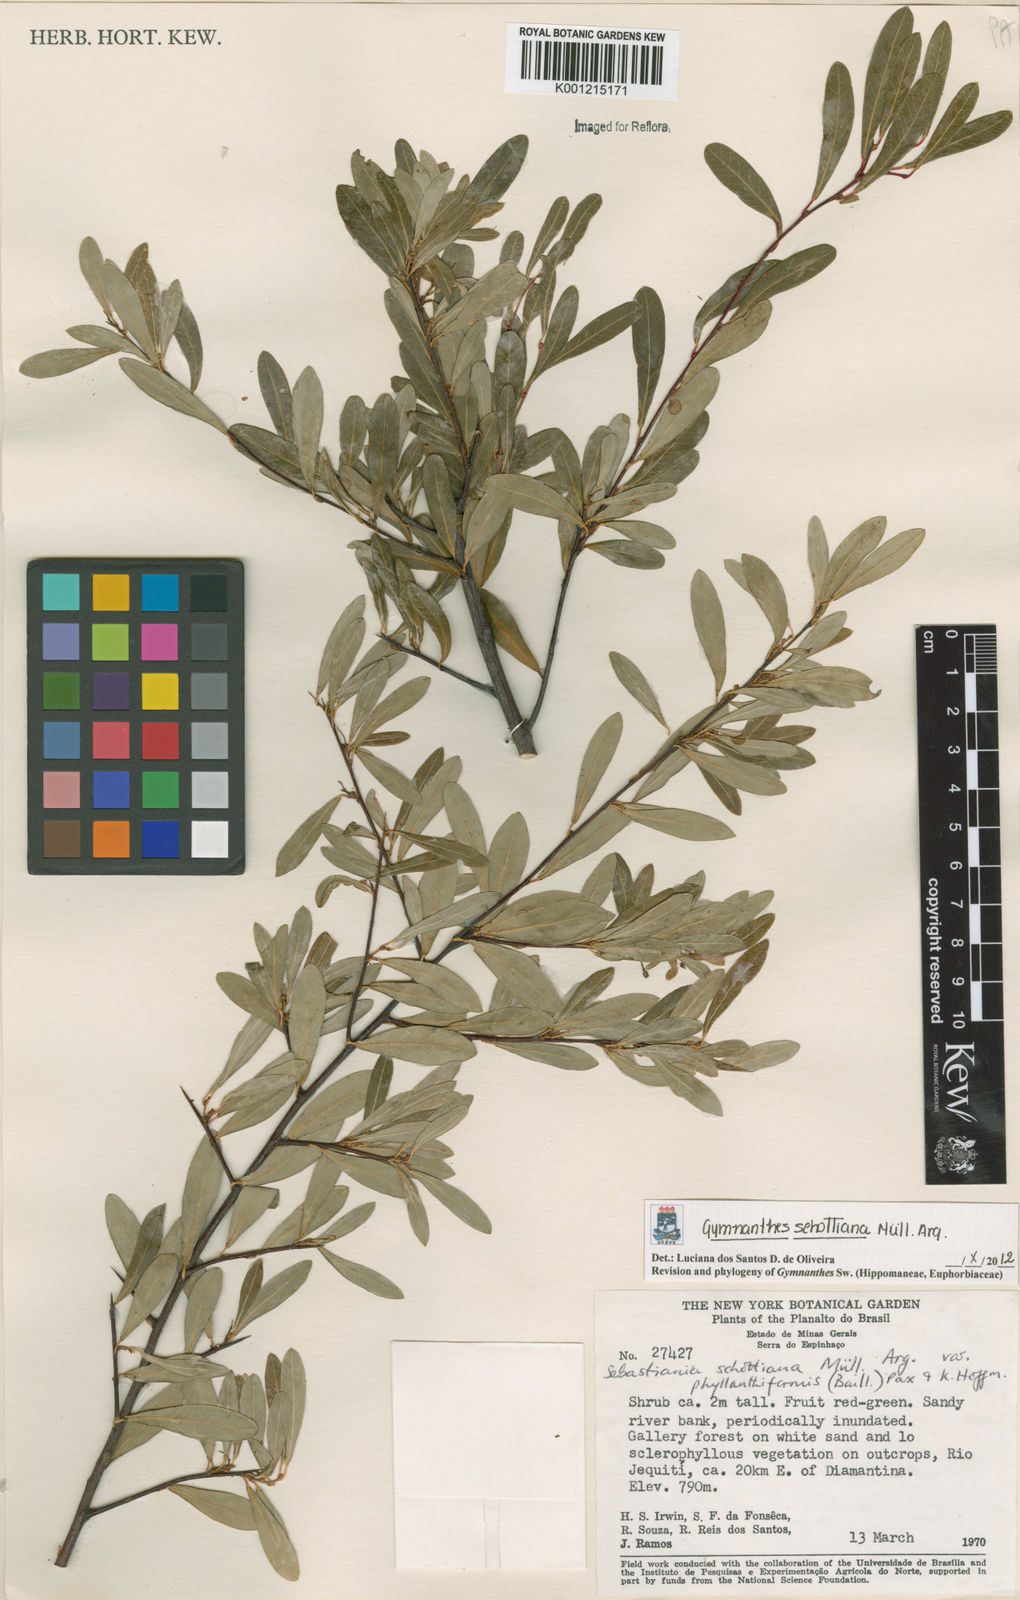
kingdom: Plantae
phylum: Tracheophyta
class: Magnoliopsida
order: Malpighiales
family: Euphorbiaceae
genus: Gymnanthes
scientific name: Gymnanthes
